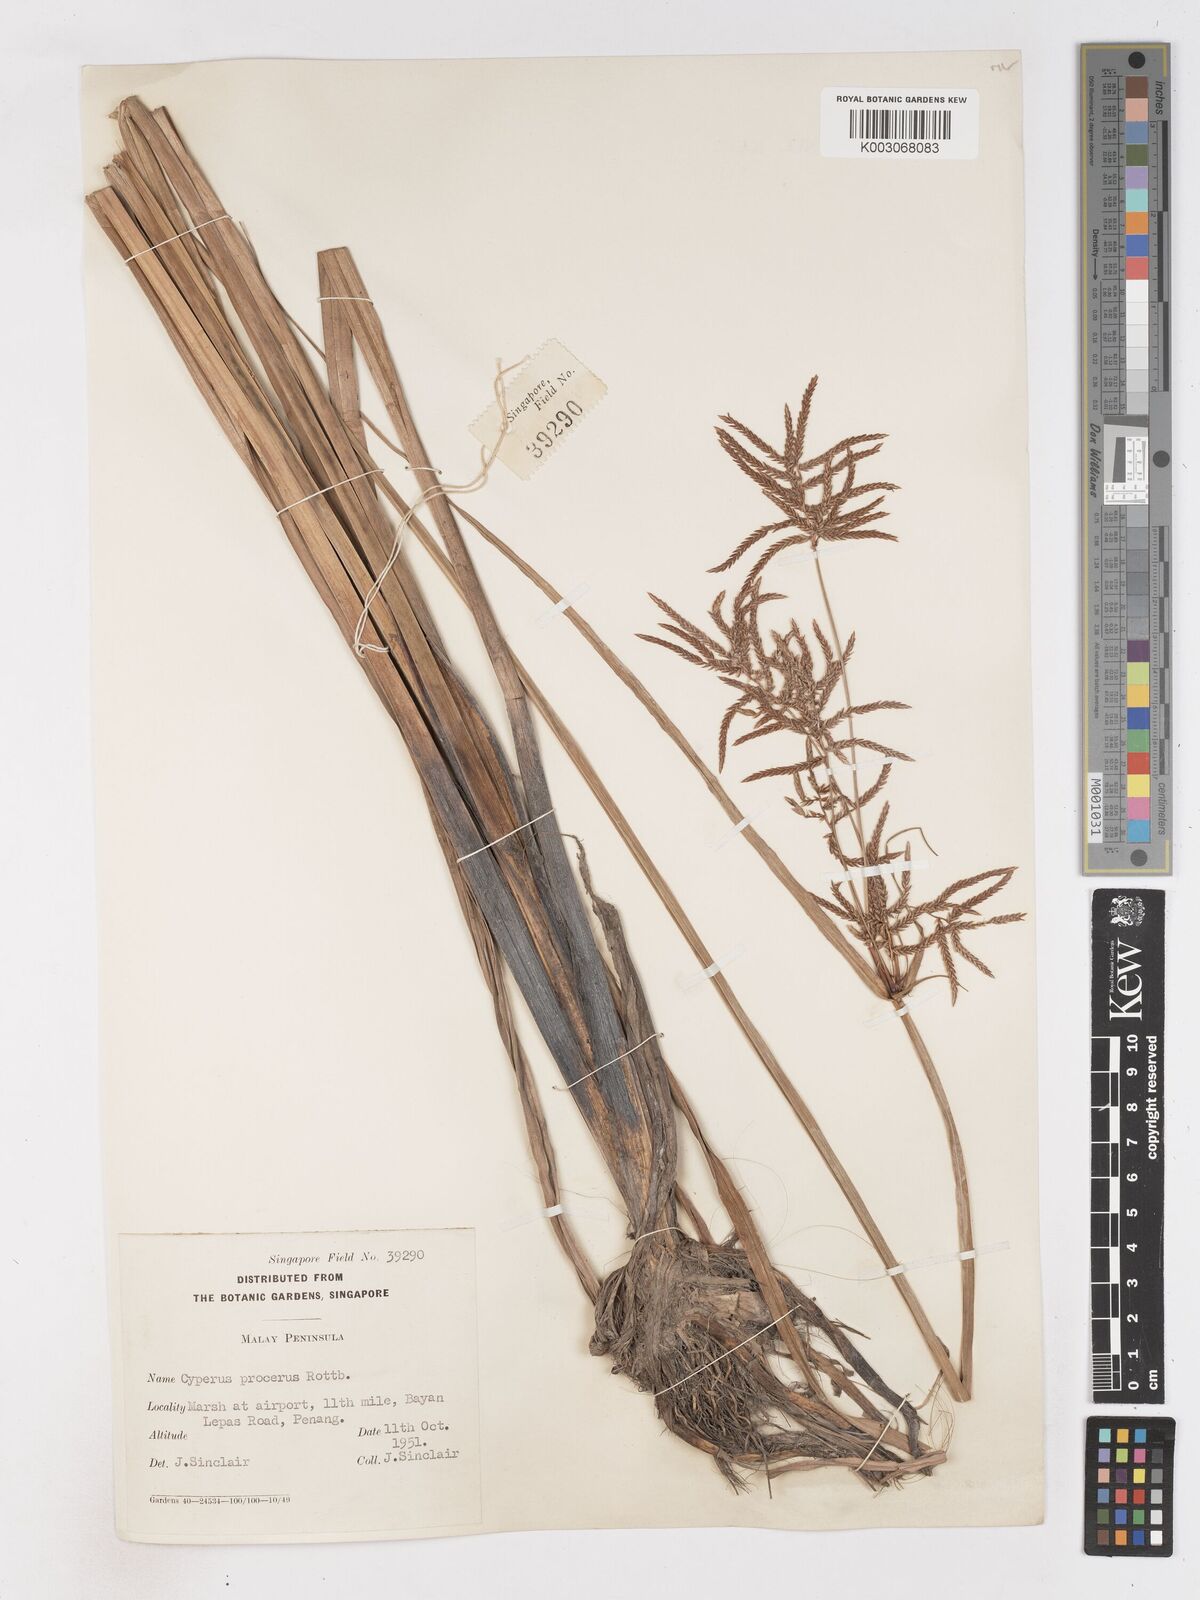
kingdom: Plantae
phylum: Tracheophyta
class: Liliopsida
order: Poales
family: Cyperaceae
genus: Cyperus
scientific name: Cyperus procerus
